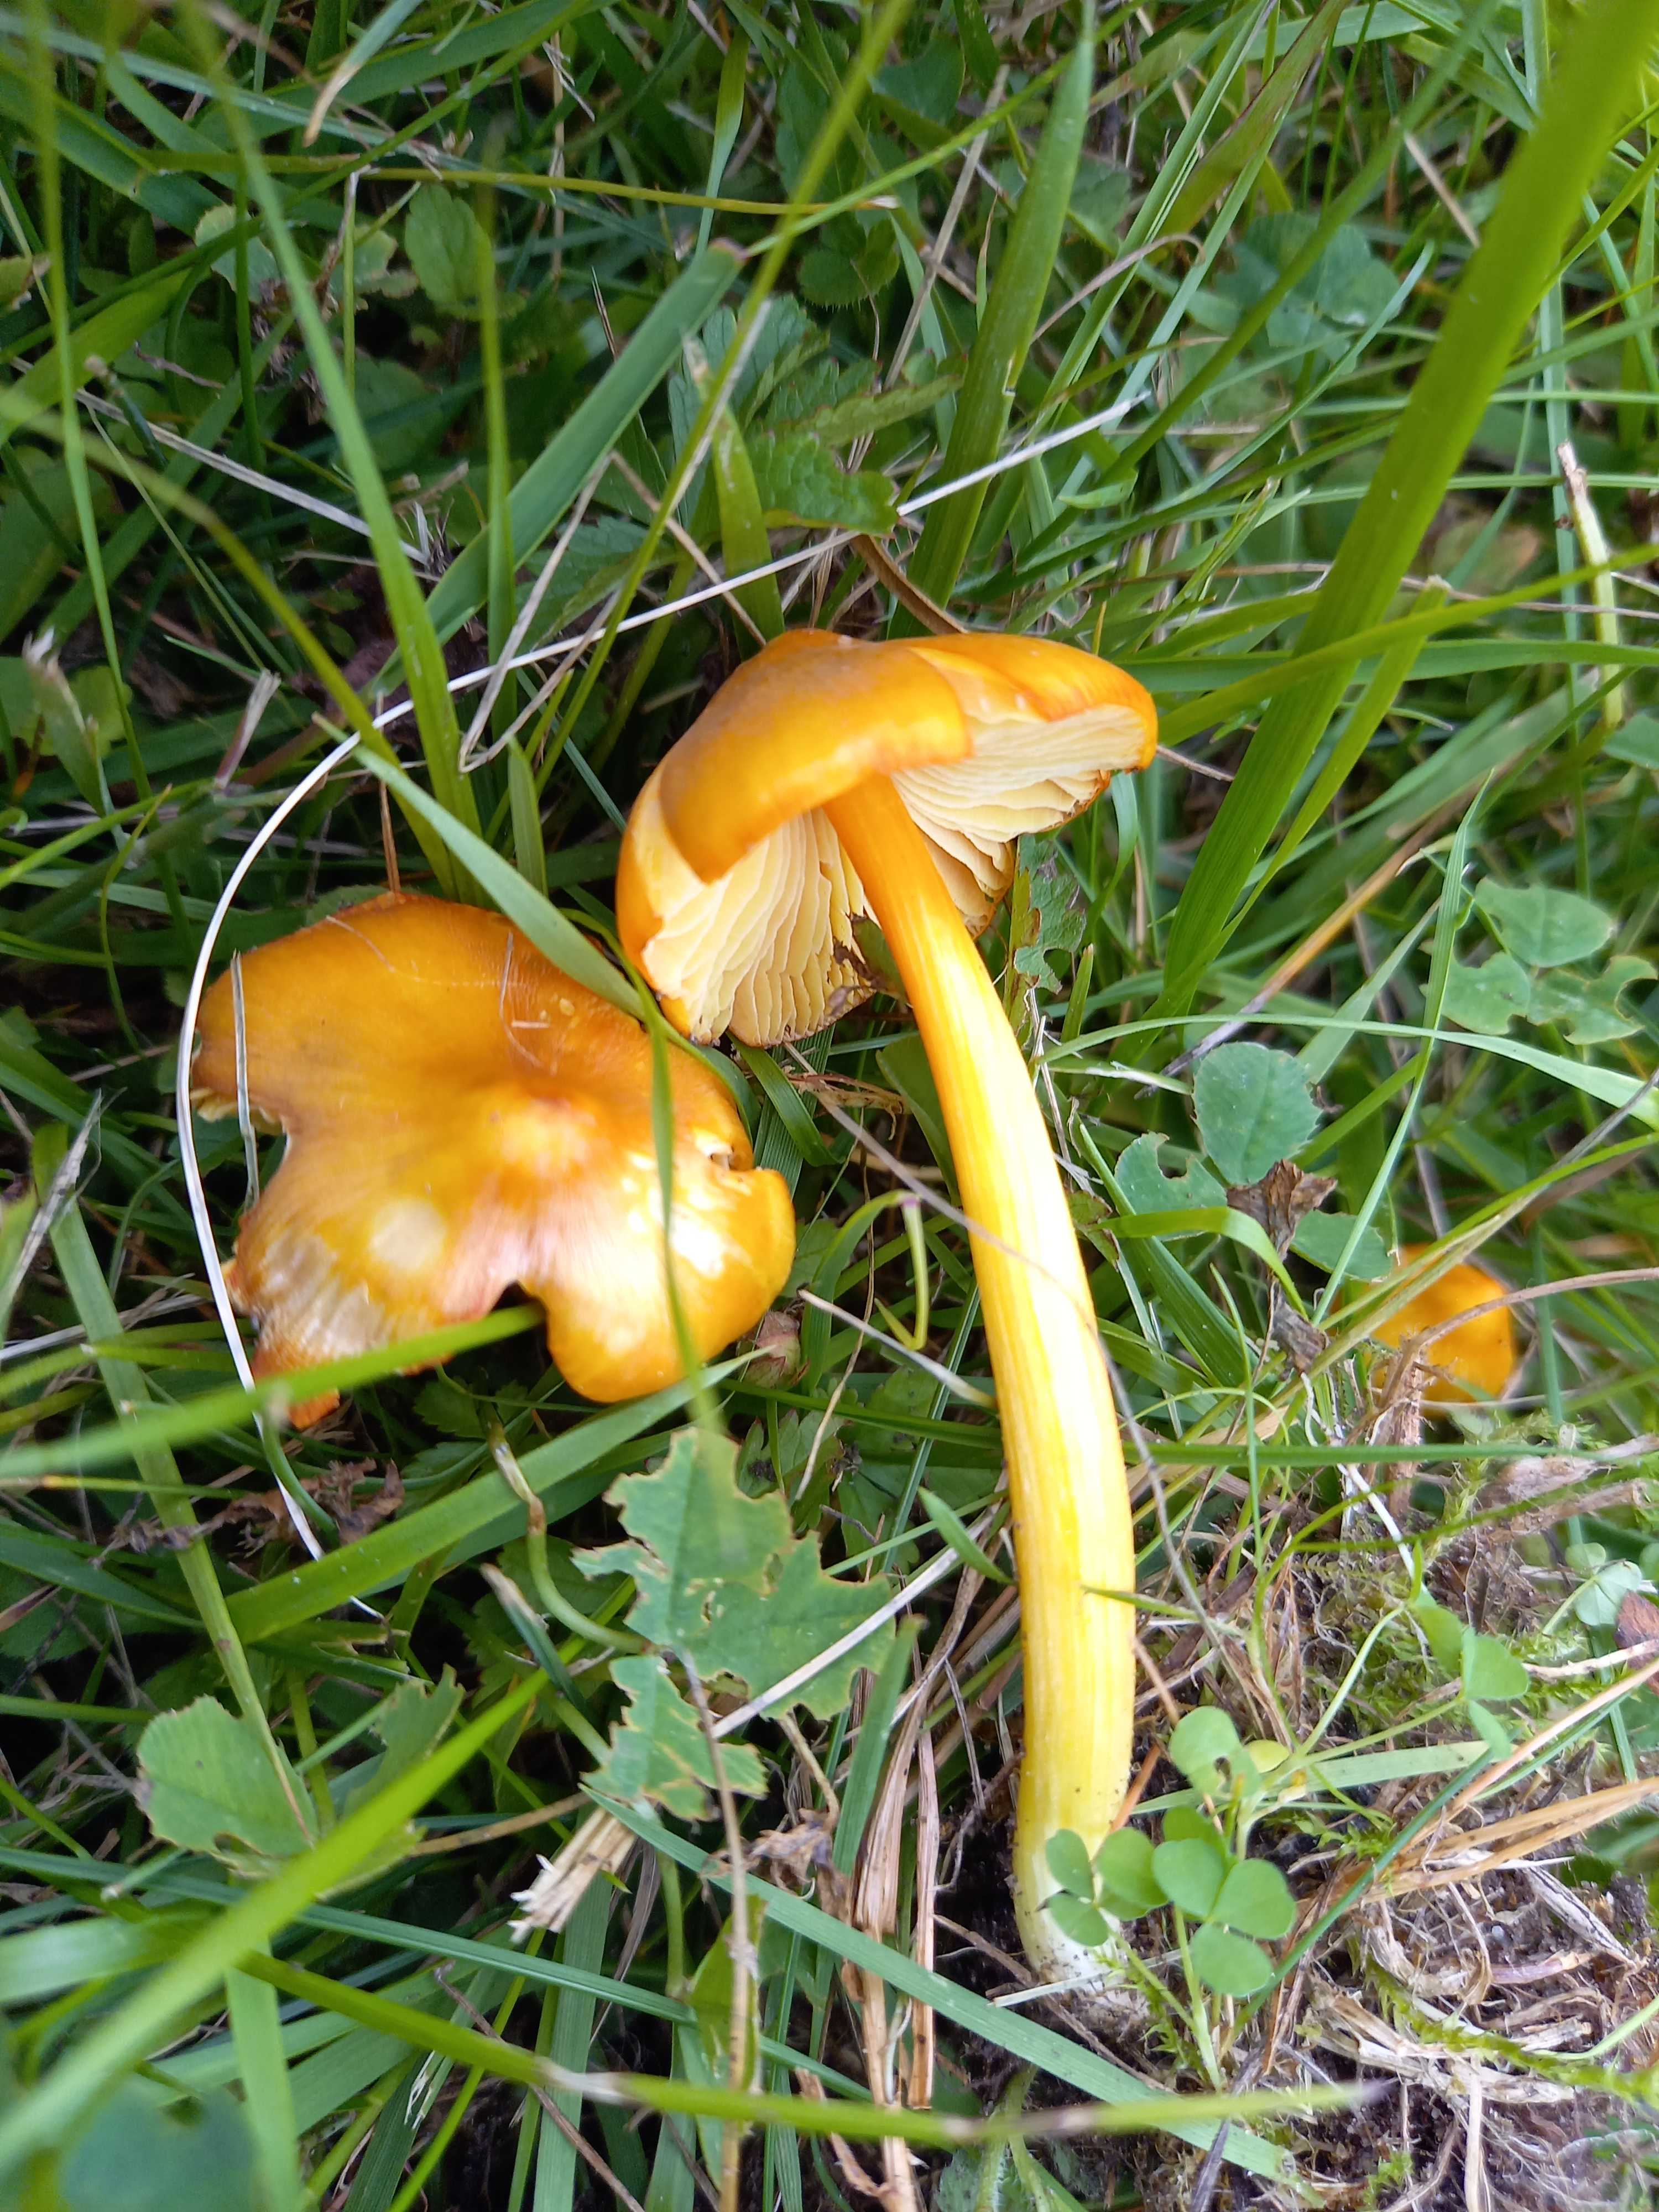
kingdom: Fungi
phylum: Basidiomycota
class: Agaricomycetes
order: Agaricales
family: Hygrophoraceae
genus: Hygrocybe
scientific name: Hygrocybe
